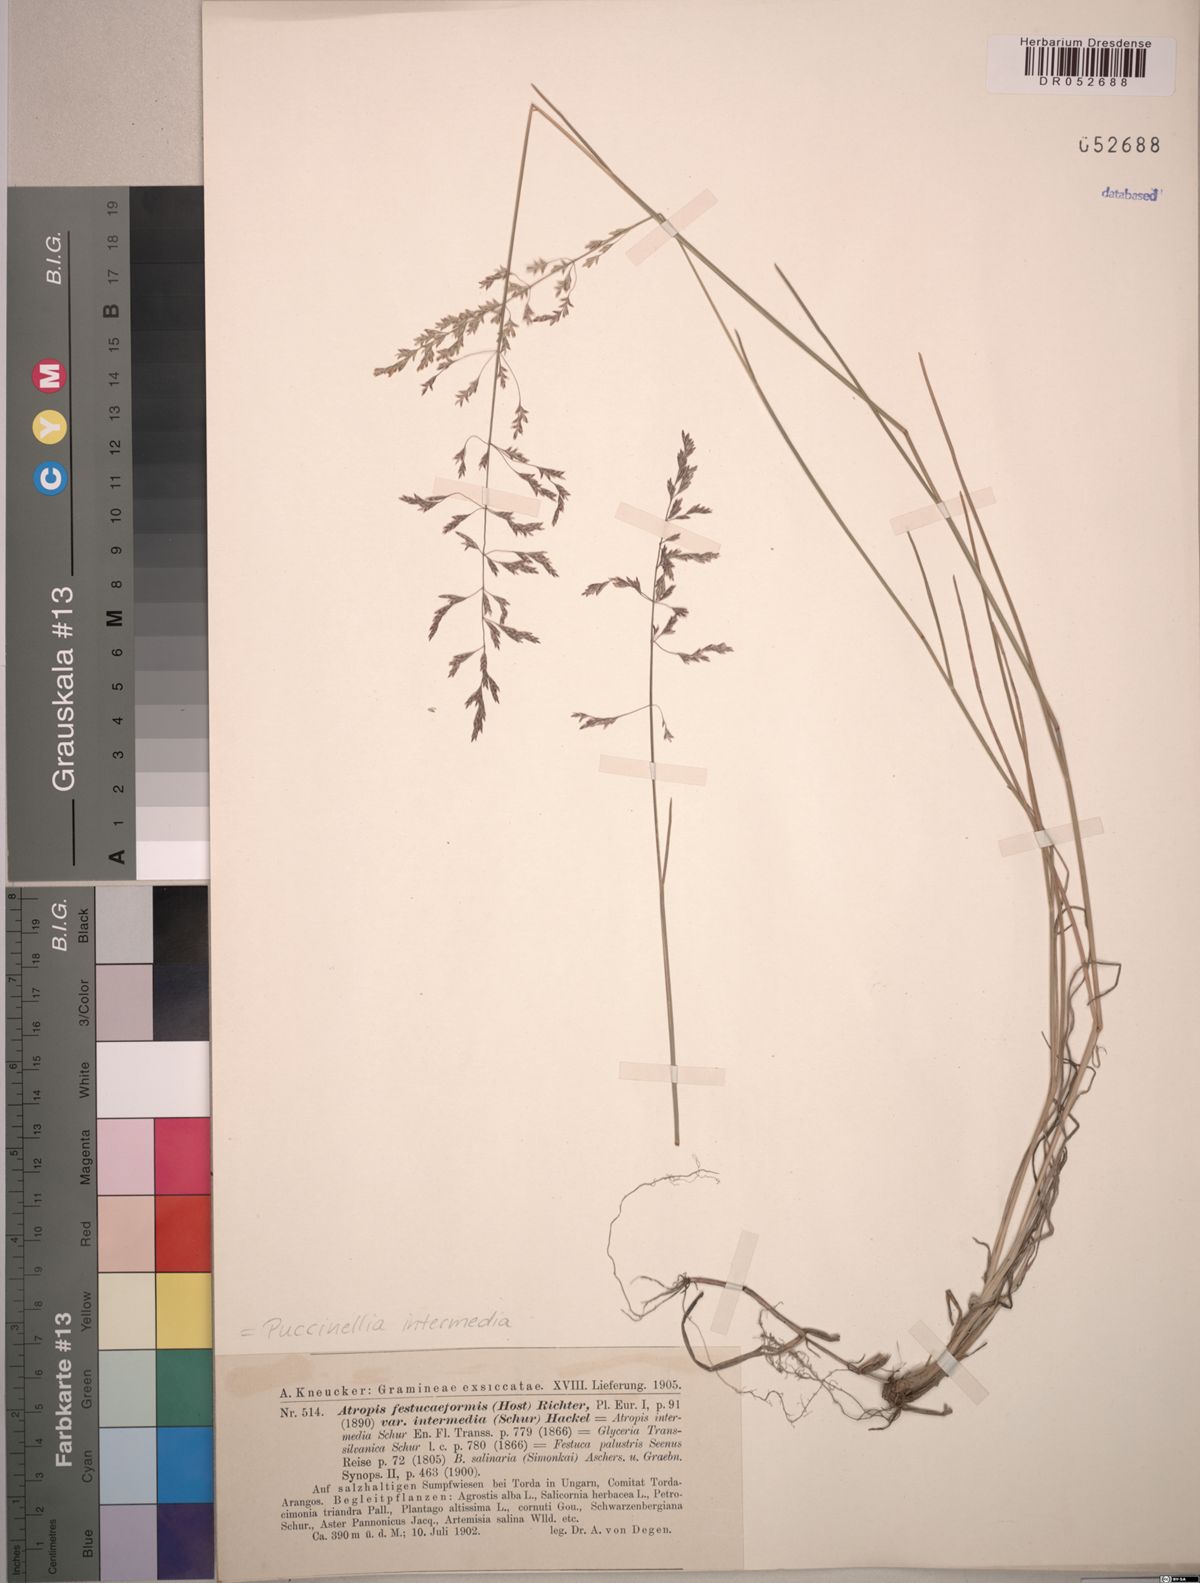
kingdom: Plantae
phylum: Tracheophyta
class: Liliopsida
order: Poales
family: Poaceae
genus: Puccinellia
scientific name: Puccinellia intermedia
